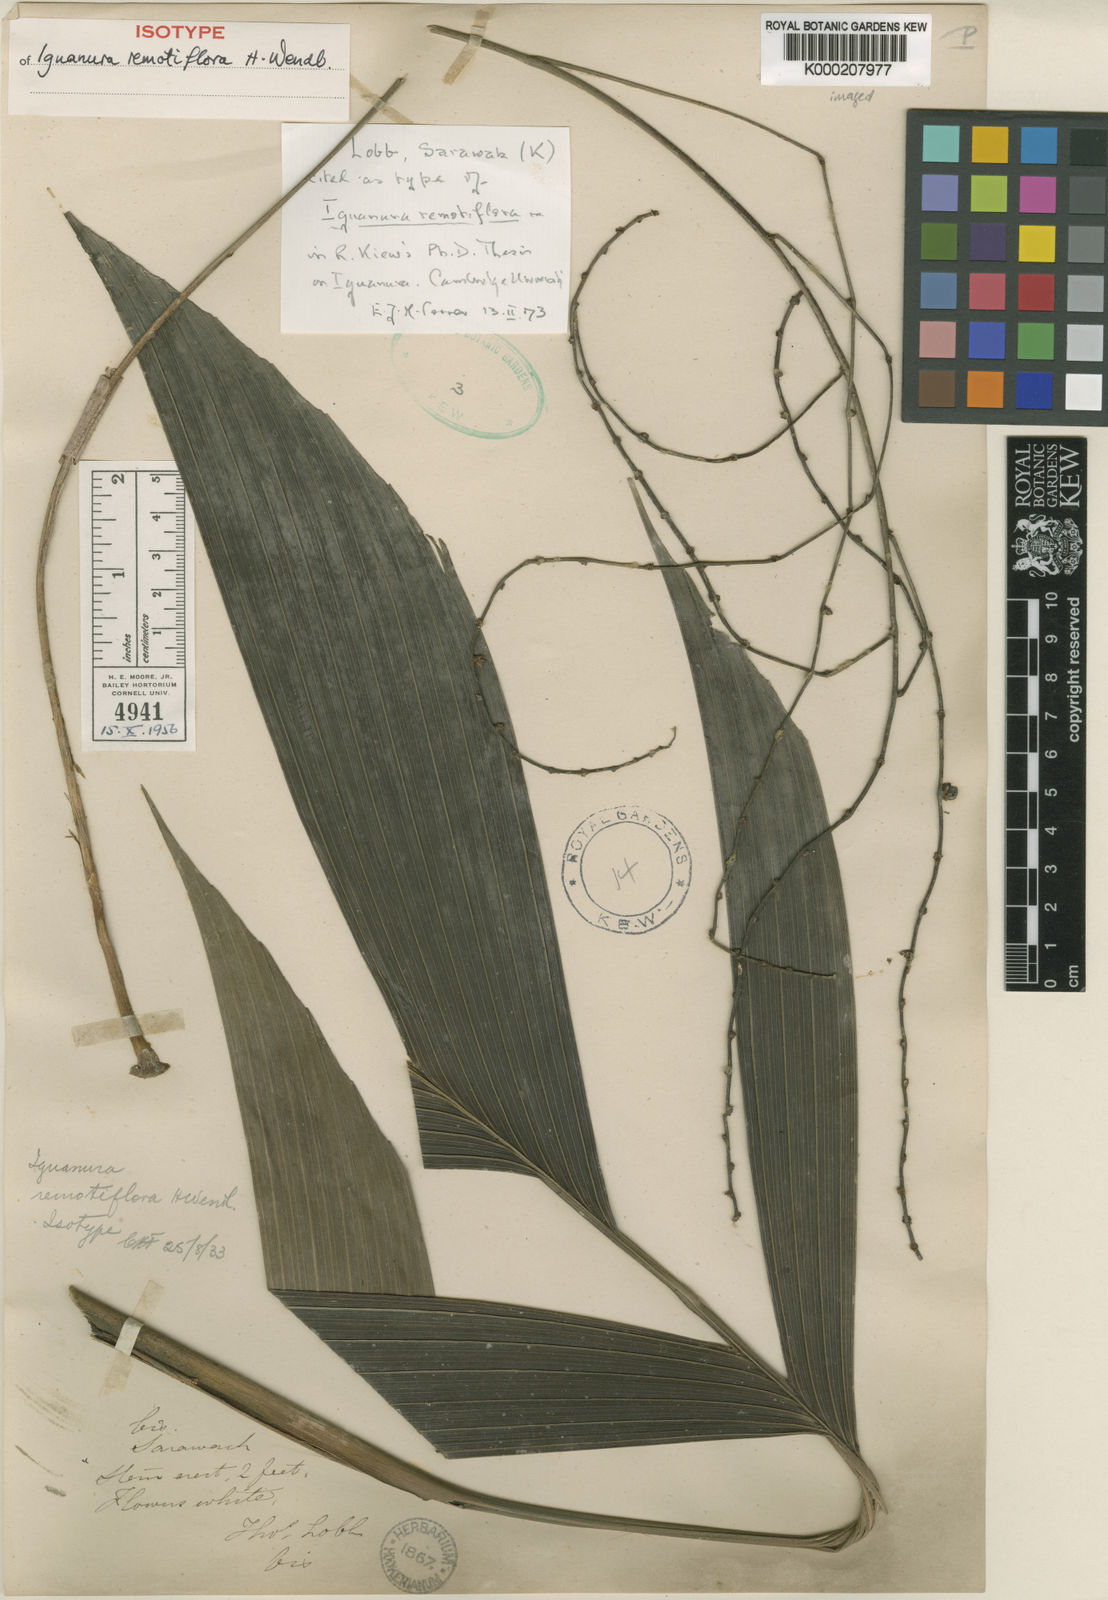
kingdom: Plantae
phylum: Tracheophyta
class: Liliopsida
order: Arecales
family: Arecaceae
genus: Iguanura
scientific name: Iguanura remotiflora
